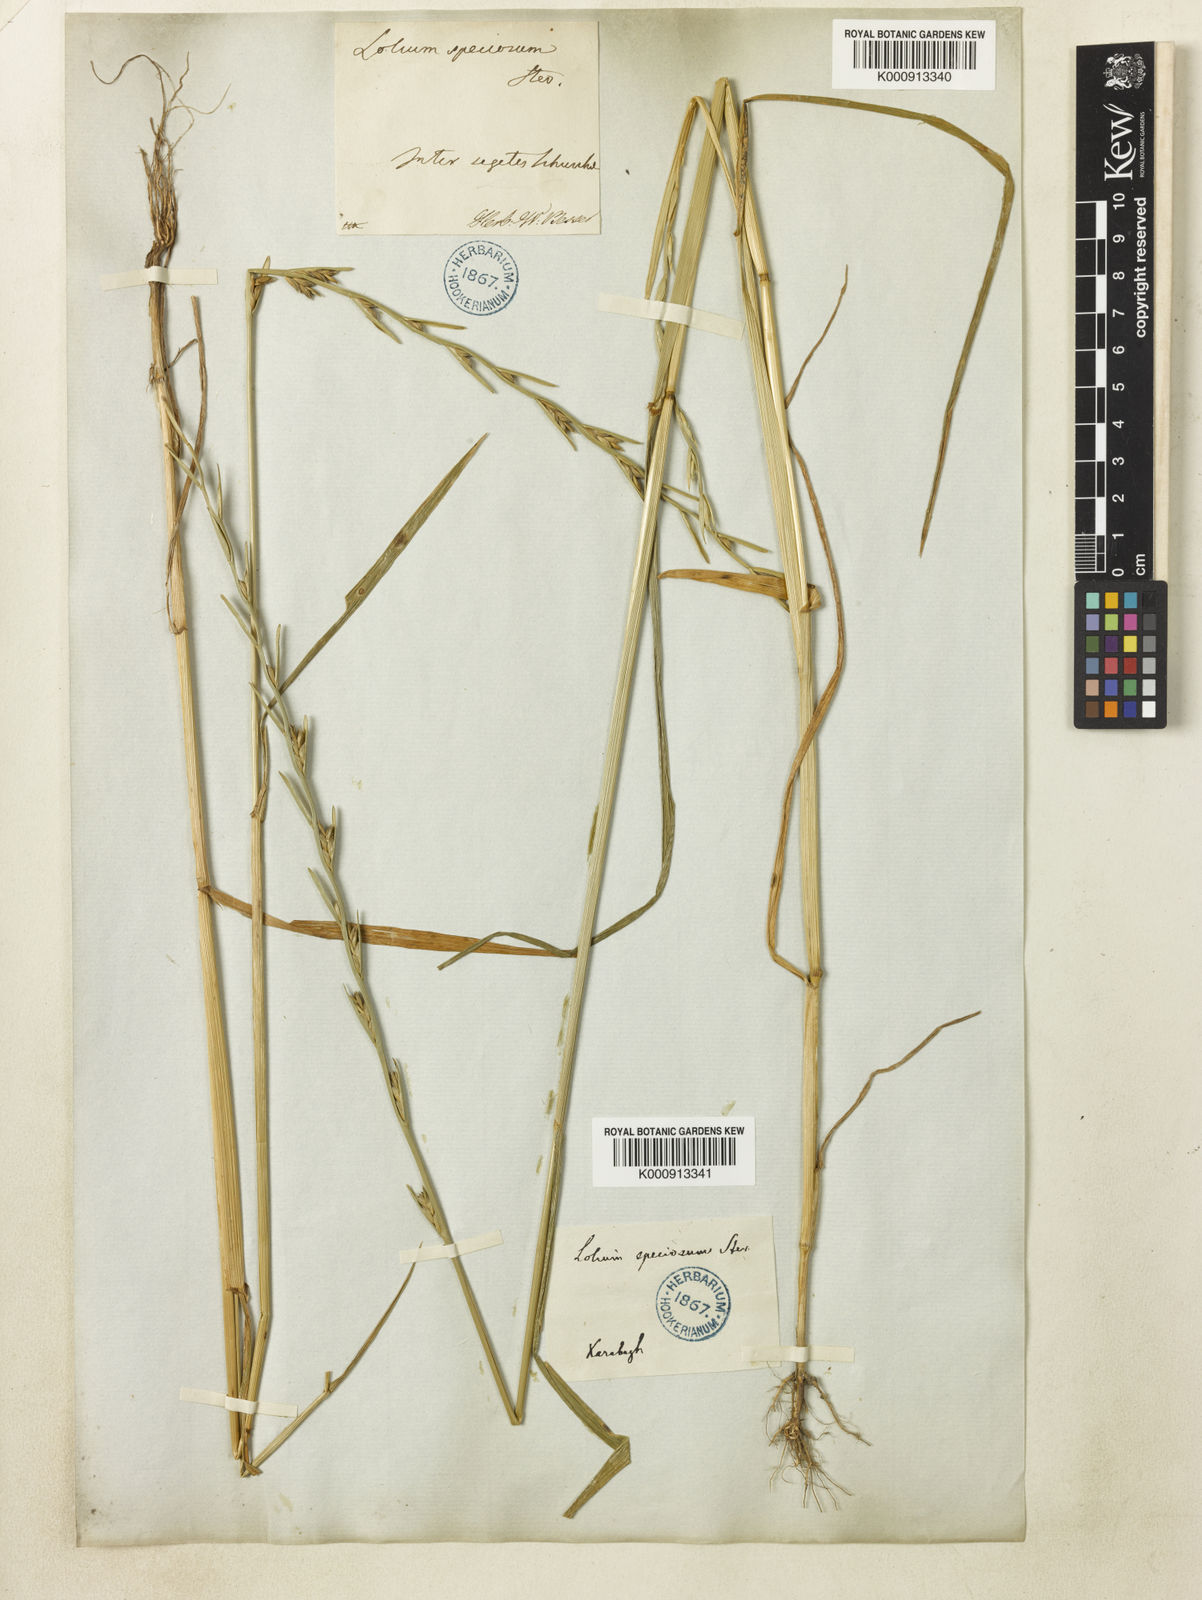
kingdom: Plantae
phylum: Tracheophyta
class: Liliopsida
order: Poales
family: Poaceae
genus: Lolium
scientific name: Lolium temulentum
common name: Darnel
